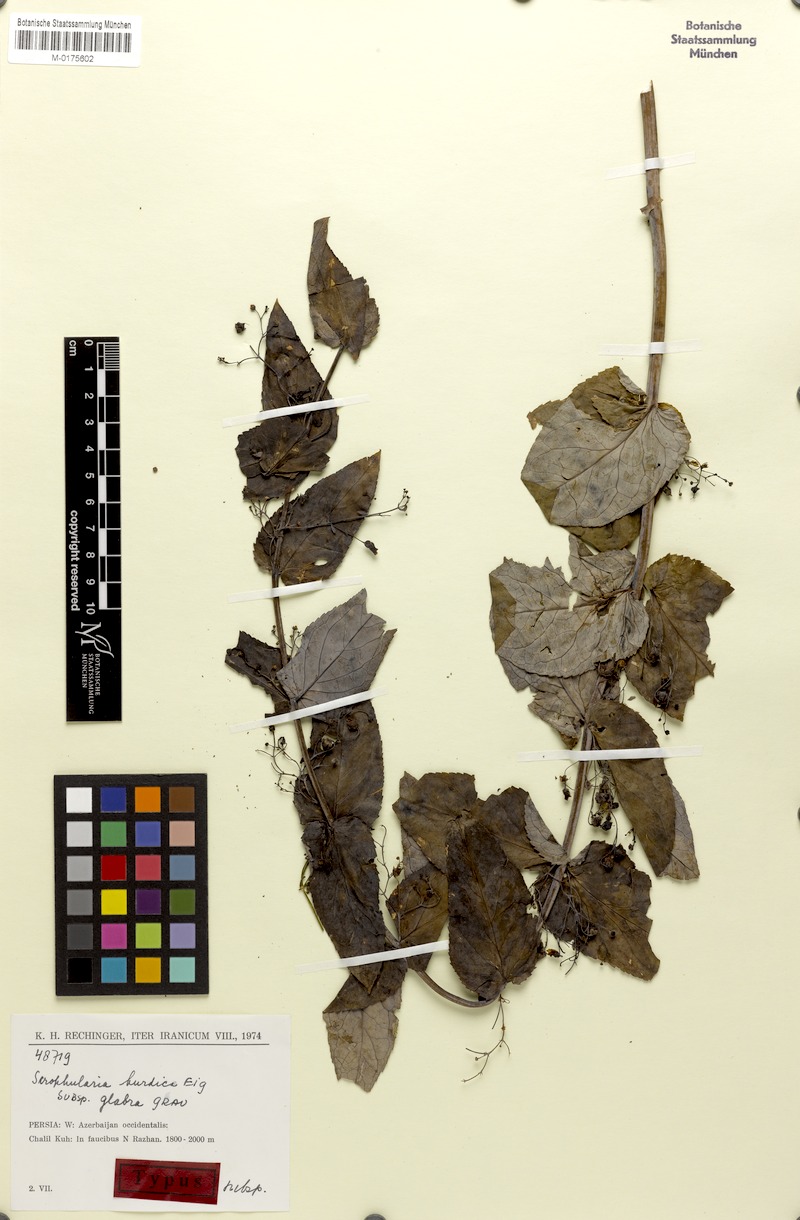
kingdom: Plantae
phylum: Tracheophyta
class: Magnoliopsida
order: Lamiales
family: Scrophulariaceae
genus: Scrophularia
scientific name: Scrophularia kurdica
